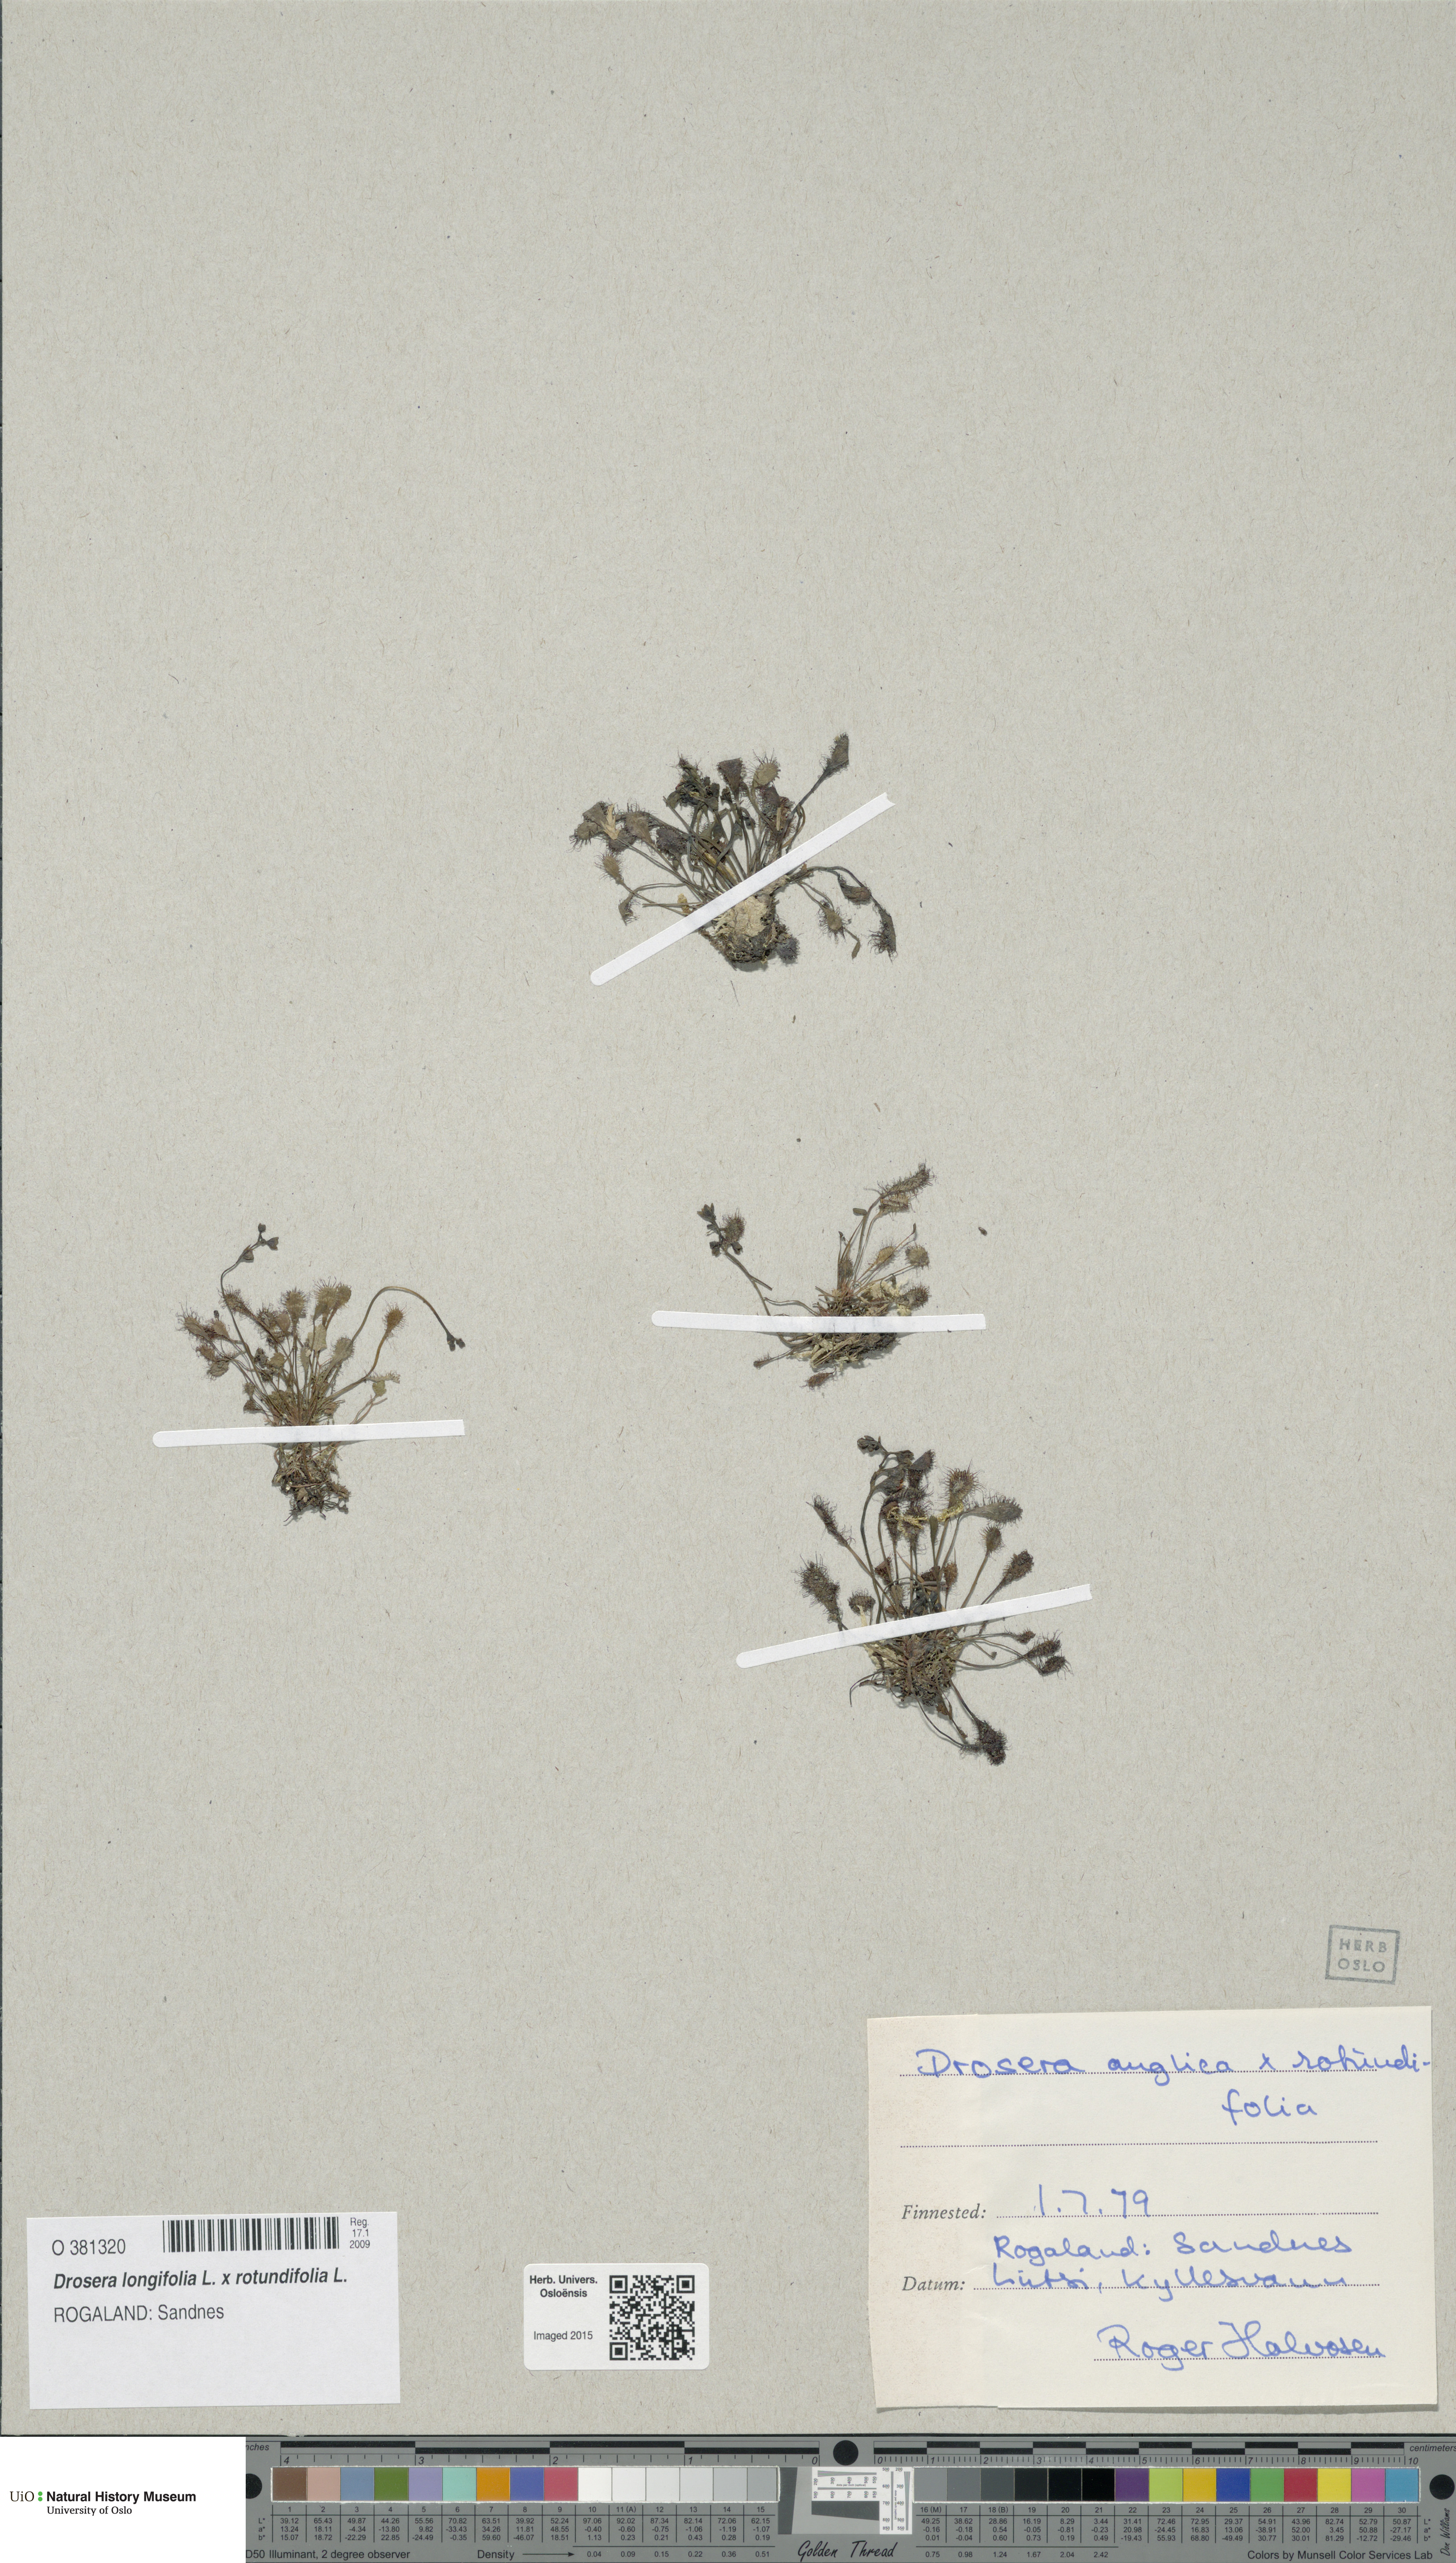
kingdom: Plantae
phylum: Tracheophyta
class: Magnoliopsida
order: Caryophyllales
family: Droseraceae
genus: Drosera
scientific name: Drosera
